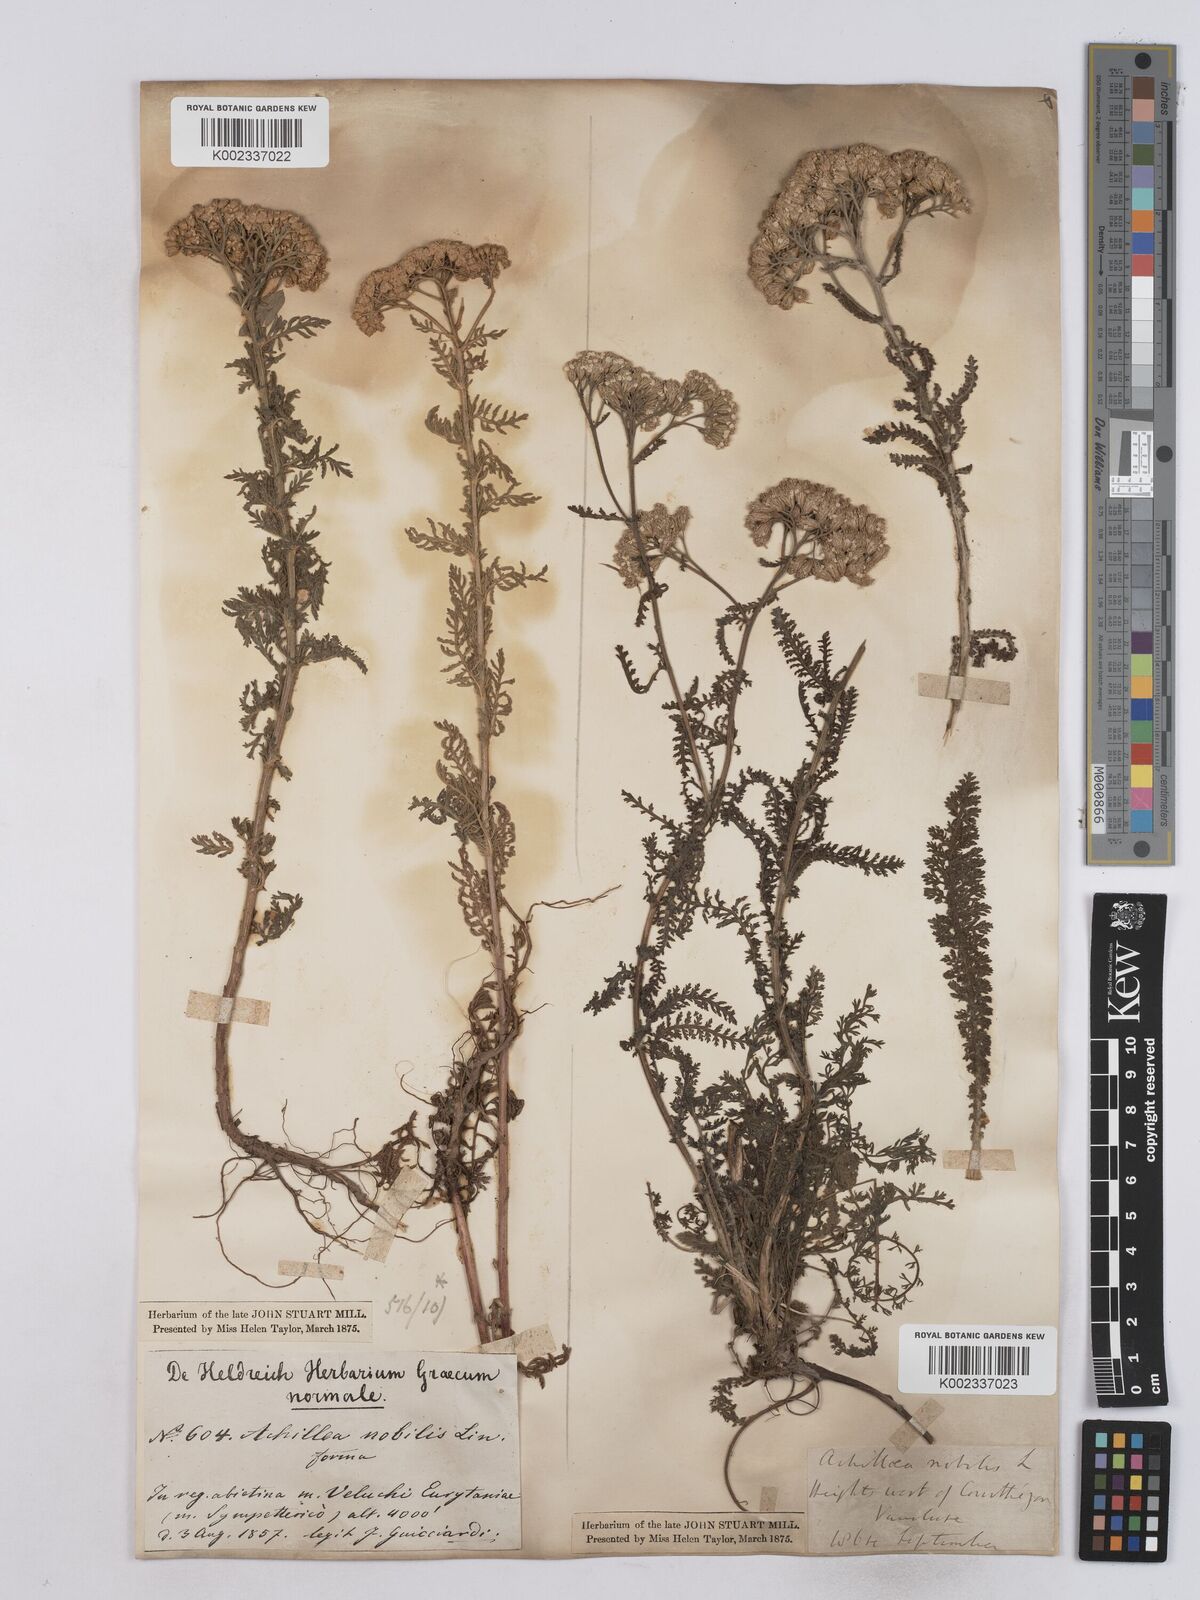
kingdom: Plantae
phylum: Tracheophyta
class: Magnoliopsida
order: Asterales
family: Asteraceae
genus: Achillea
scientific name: Achillea nobilis
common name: Noble yarrow
